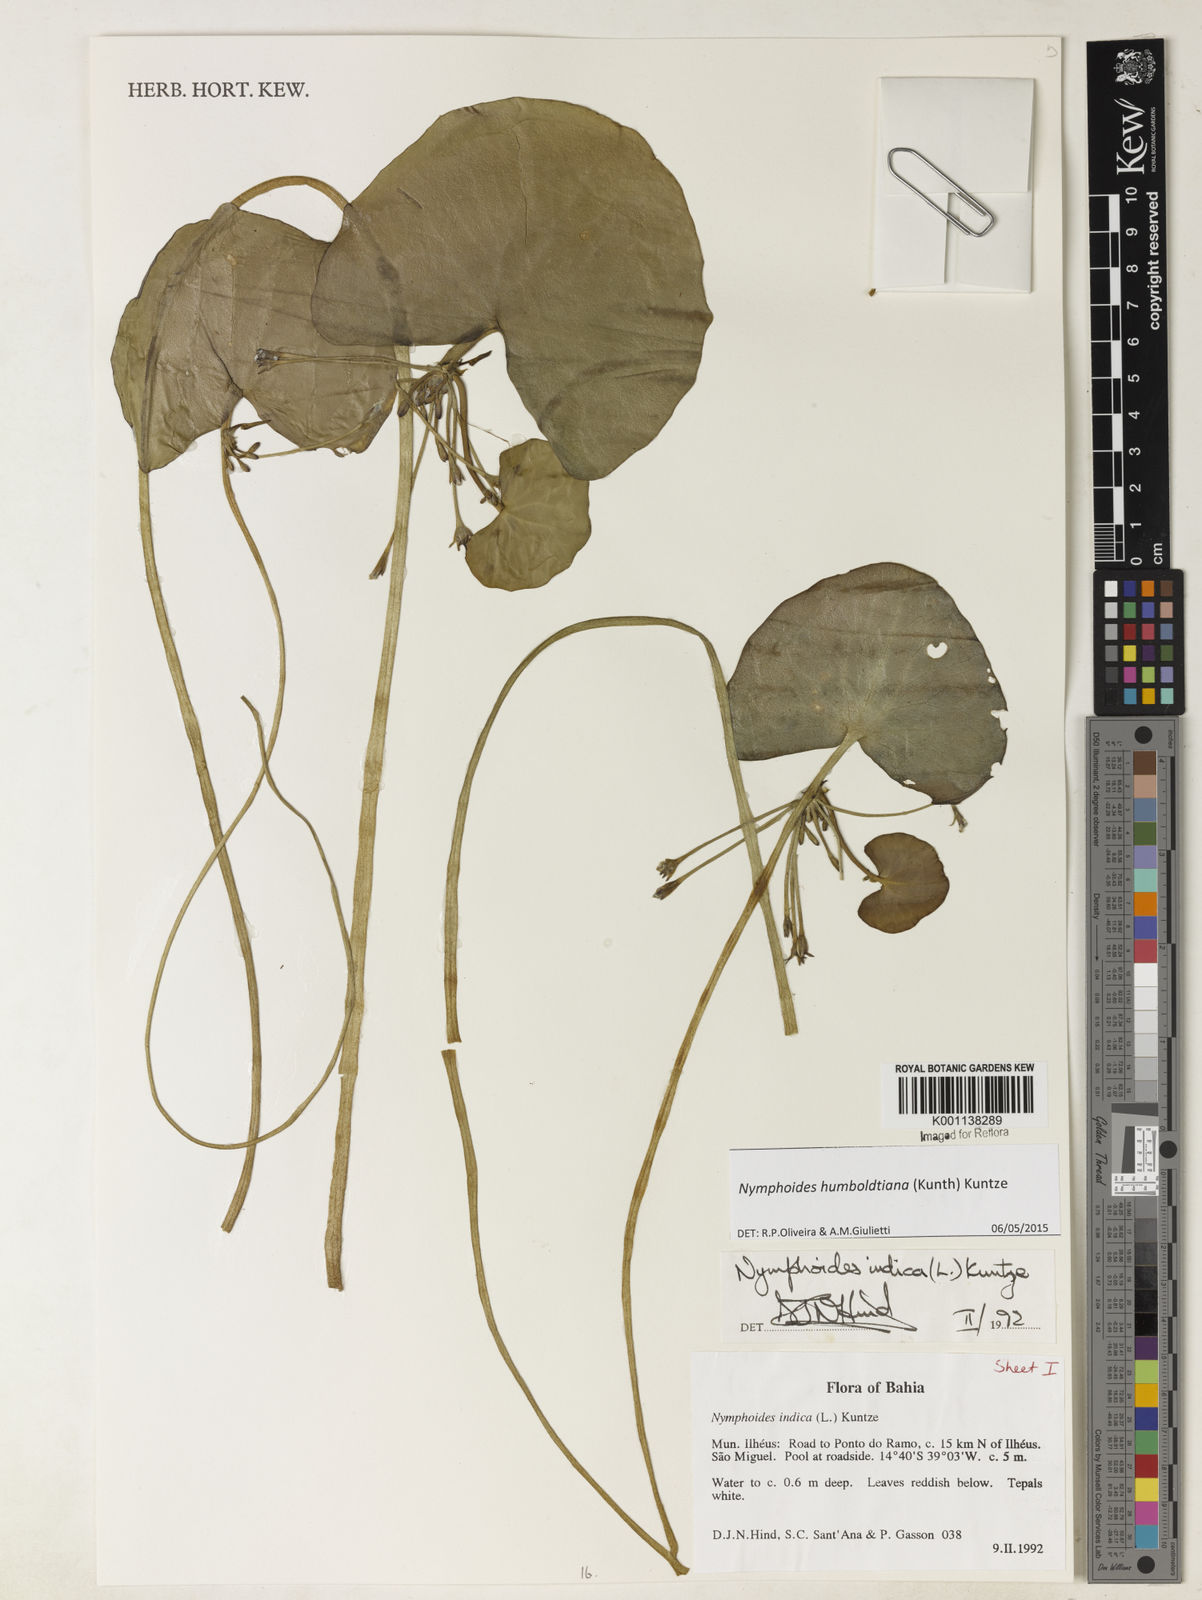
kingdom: Plantae
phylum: Tracheophyta
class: Magnoliopsida
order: Asterales
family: Menyanthaceae
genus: Nymphoides
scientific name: Nymphoides
